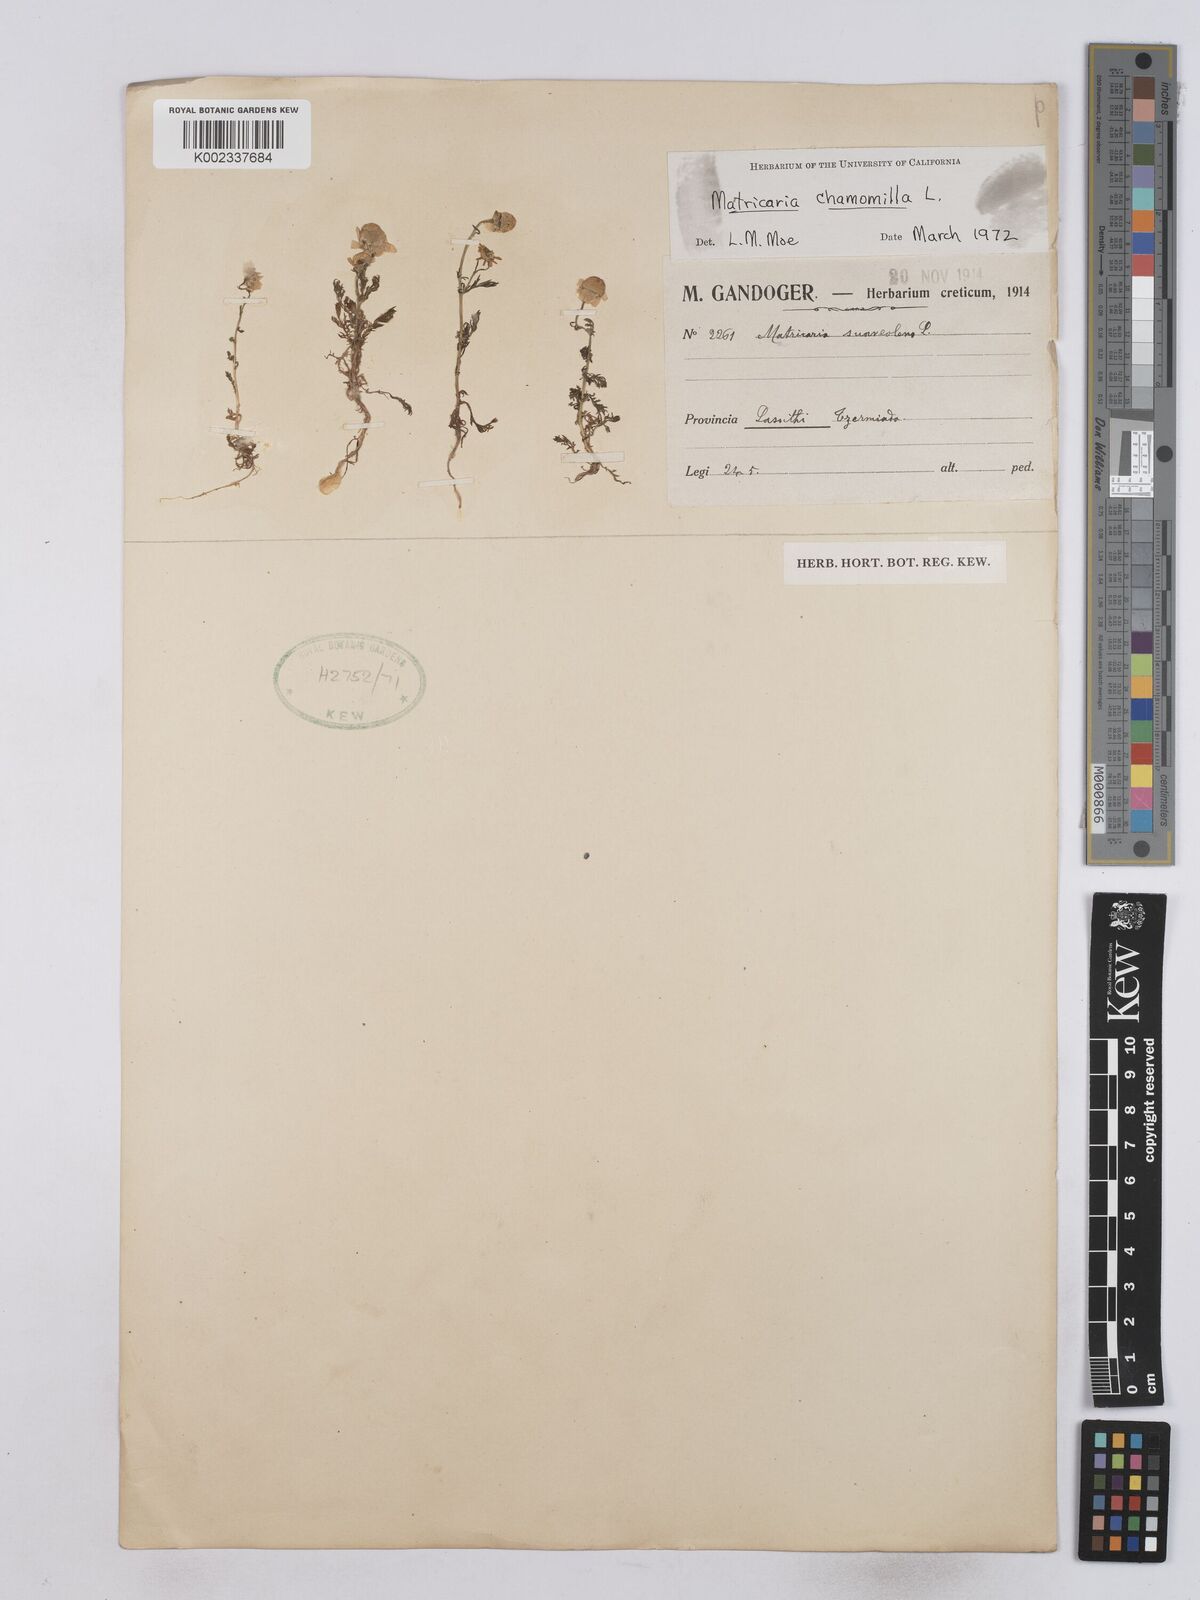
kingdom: Plantae
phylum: Tracheophyta
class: Magnoliopsida
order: Asterales
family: Asteraceae
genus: Matricaria
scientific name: Matricaria chamomilla
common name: Scented mayweed
